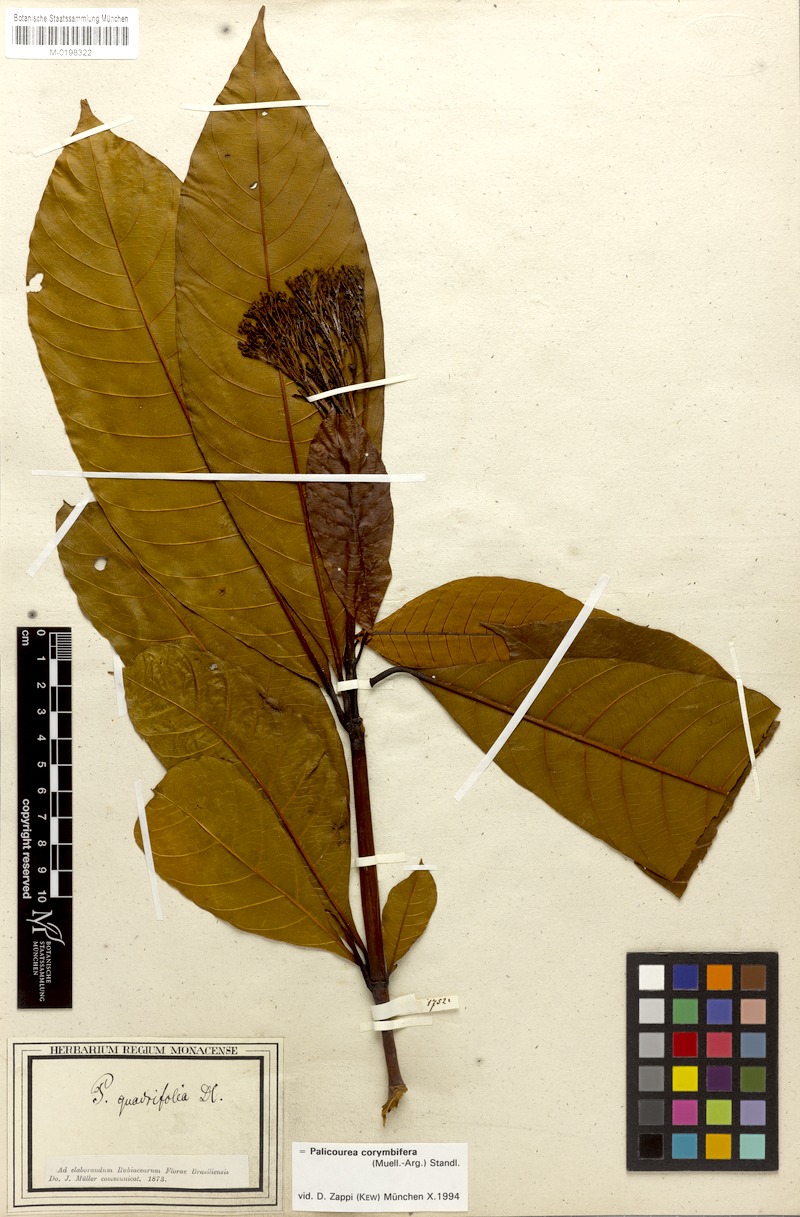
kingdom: Plantae
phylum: Tracheophyta
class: Magnoliopsida
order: Gentianales
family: Rubiaceae
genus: Palicourea
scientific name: Palicourea corymbifera
